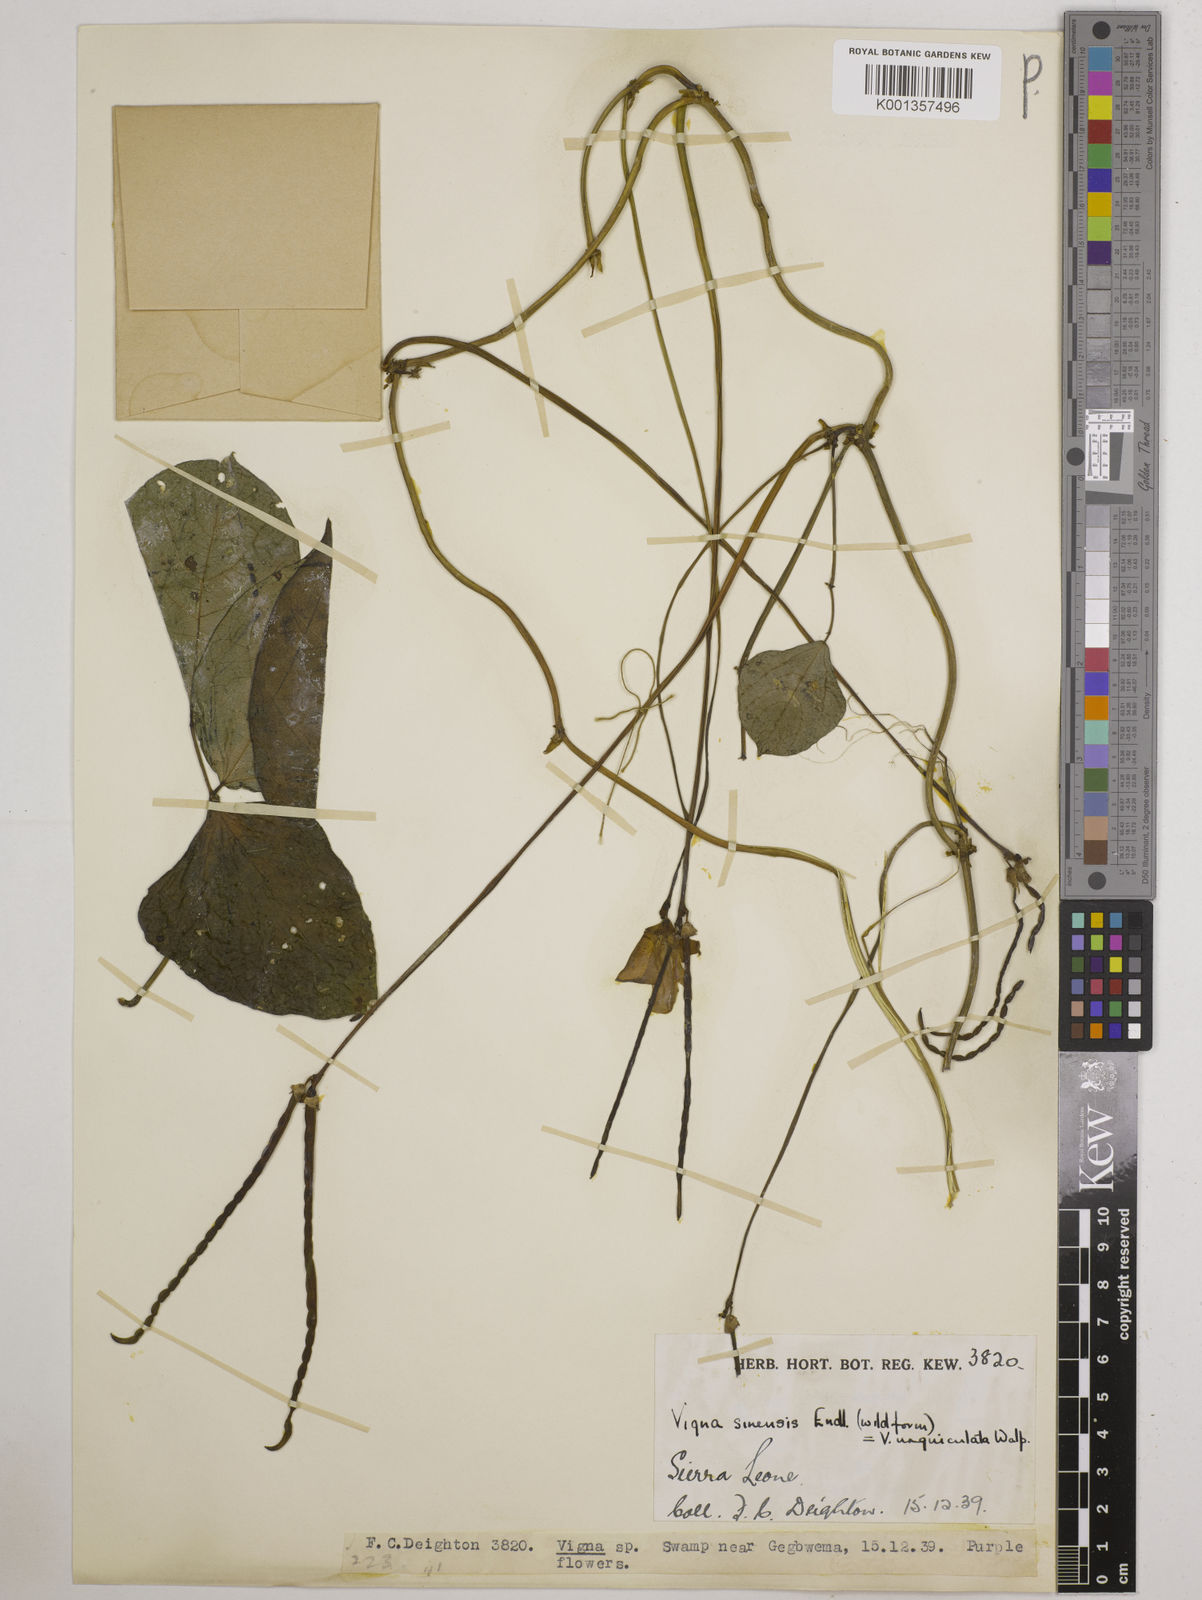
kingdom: Plantae
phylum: Tracheophyta
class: Magnoliopsida
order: Fabales
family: Fabaceae
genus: Vigna
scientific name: Vigna
